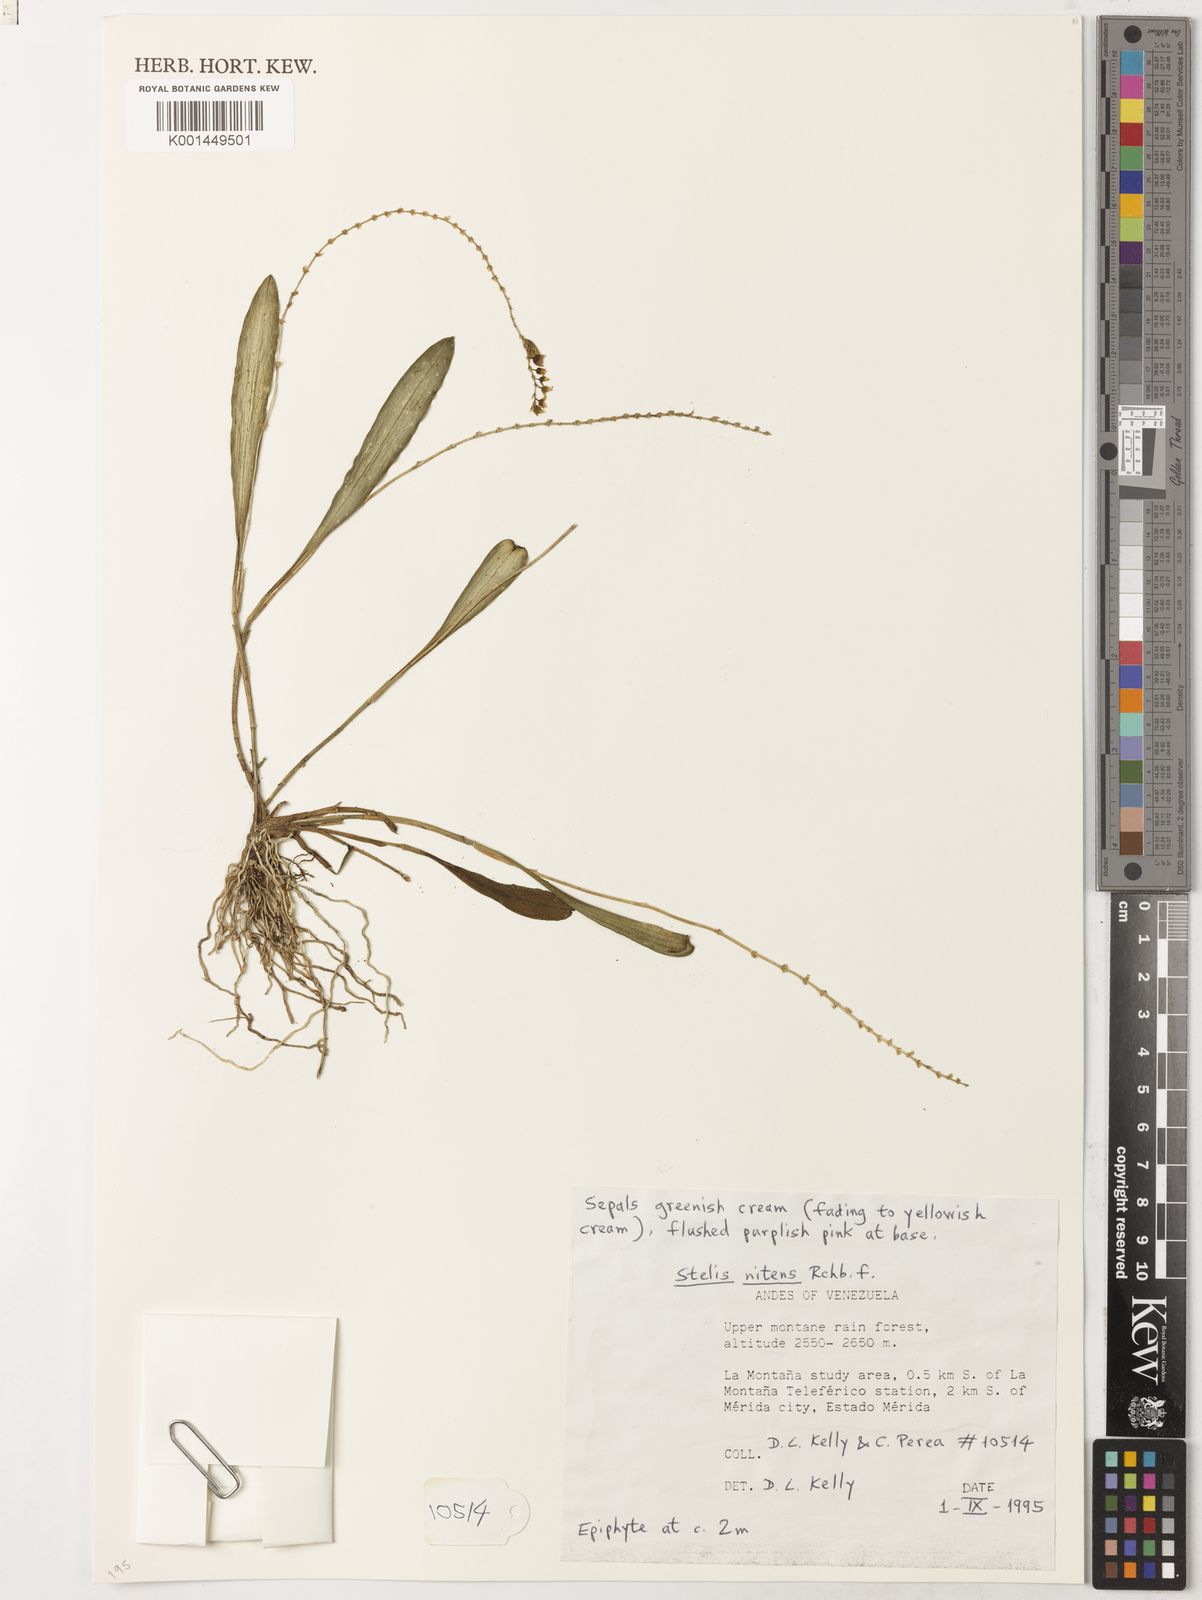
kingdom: Plantae
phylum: Tracheophyta
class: Liliopsida
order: Asparagales
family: Orchidaceae
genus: Stelis
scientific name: Stelis nitens
